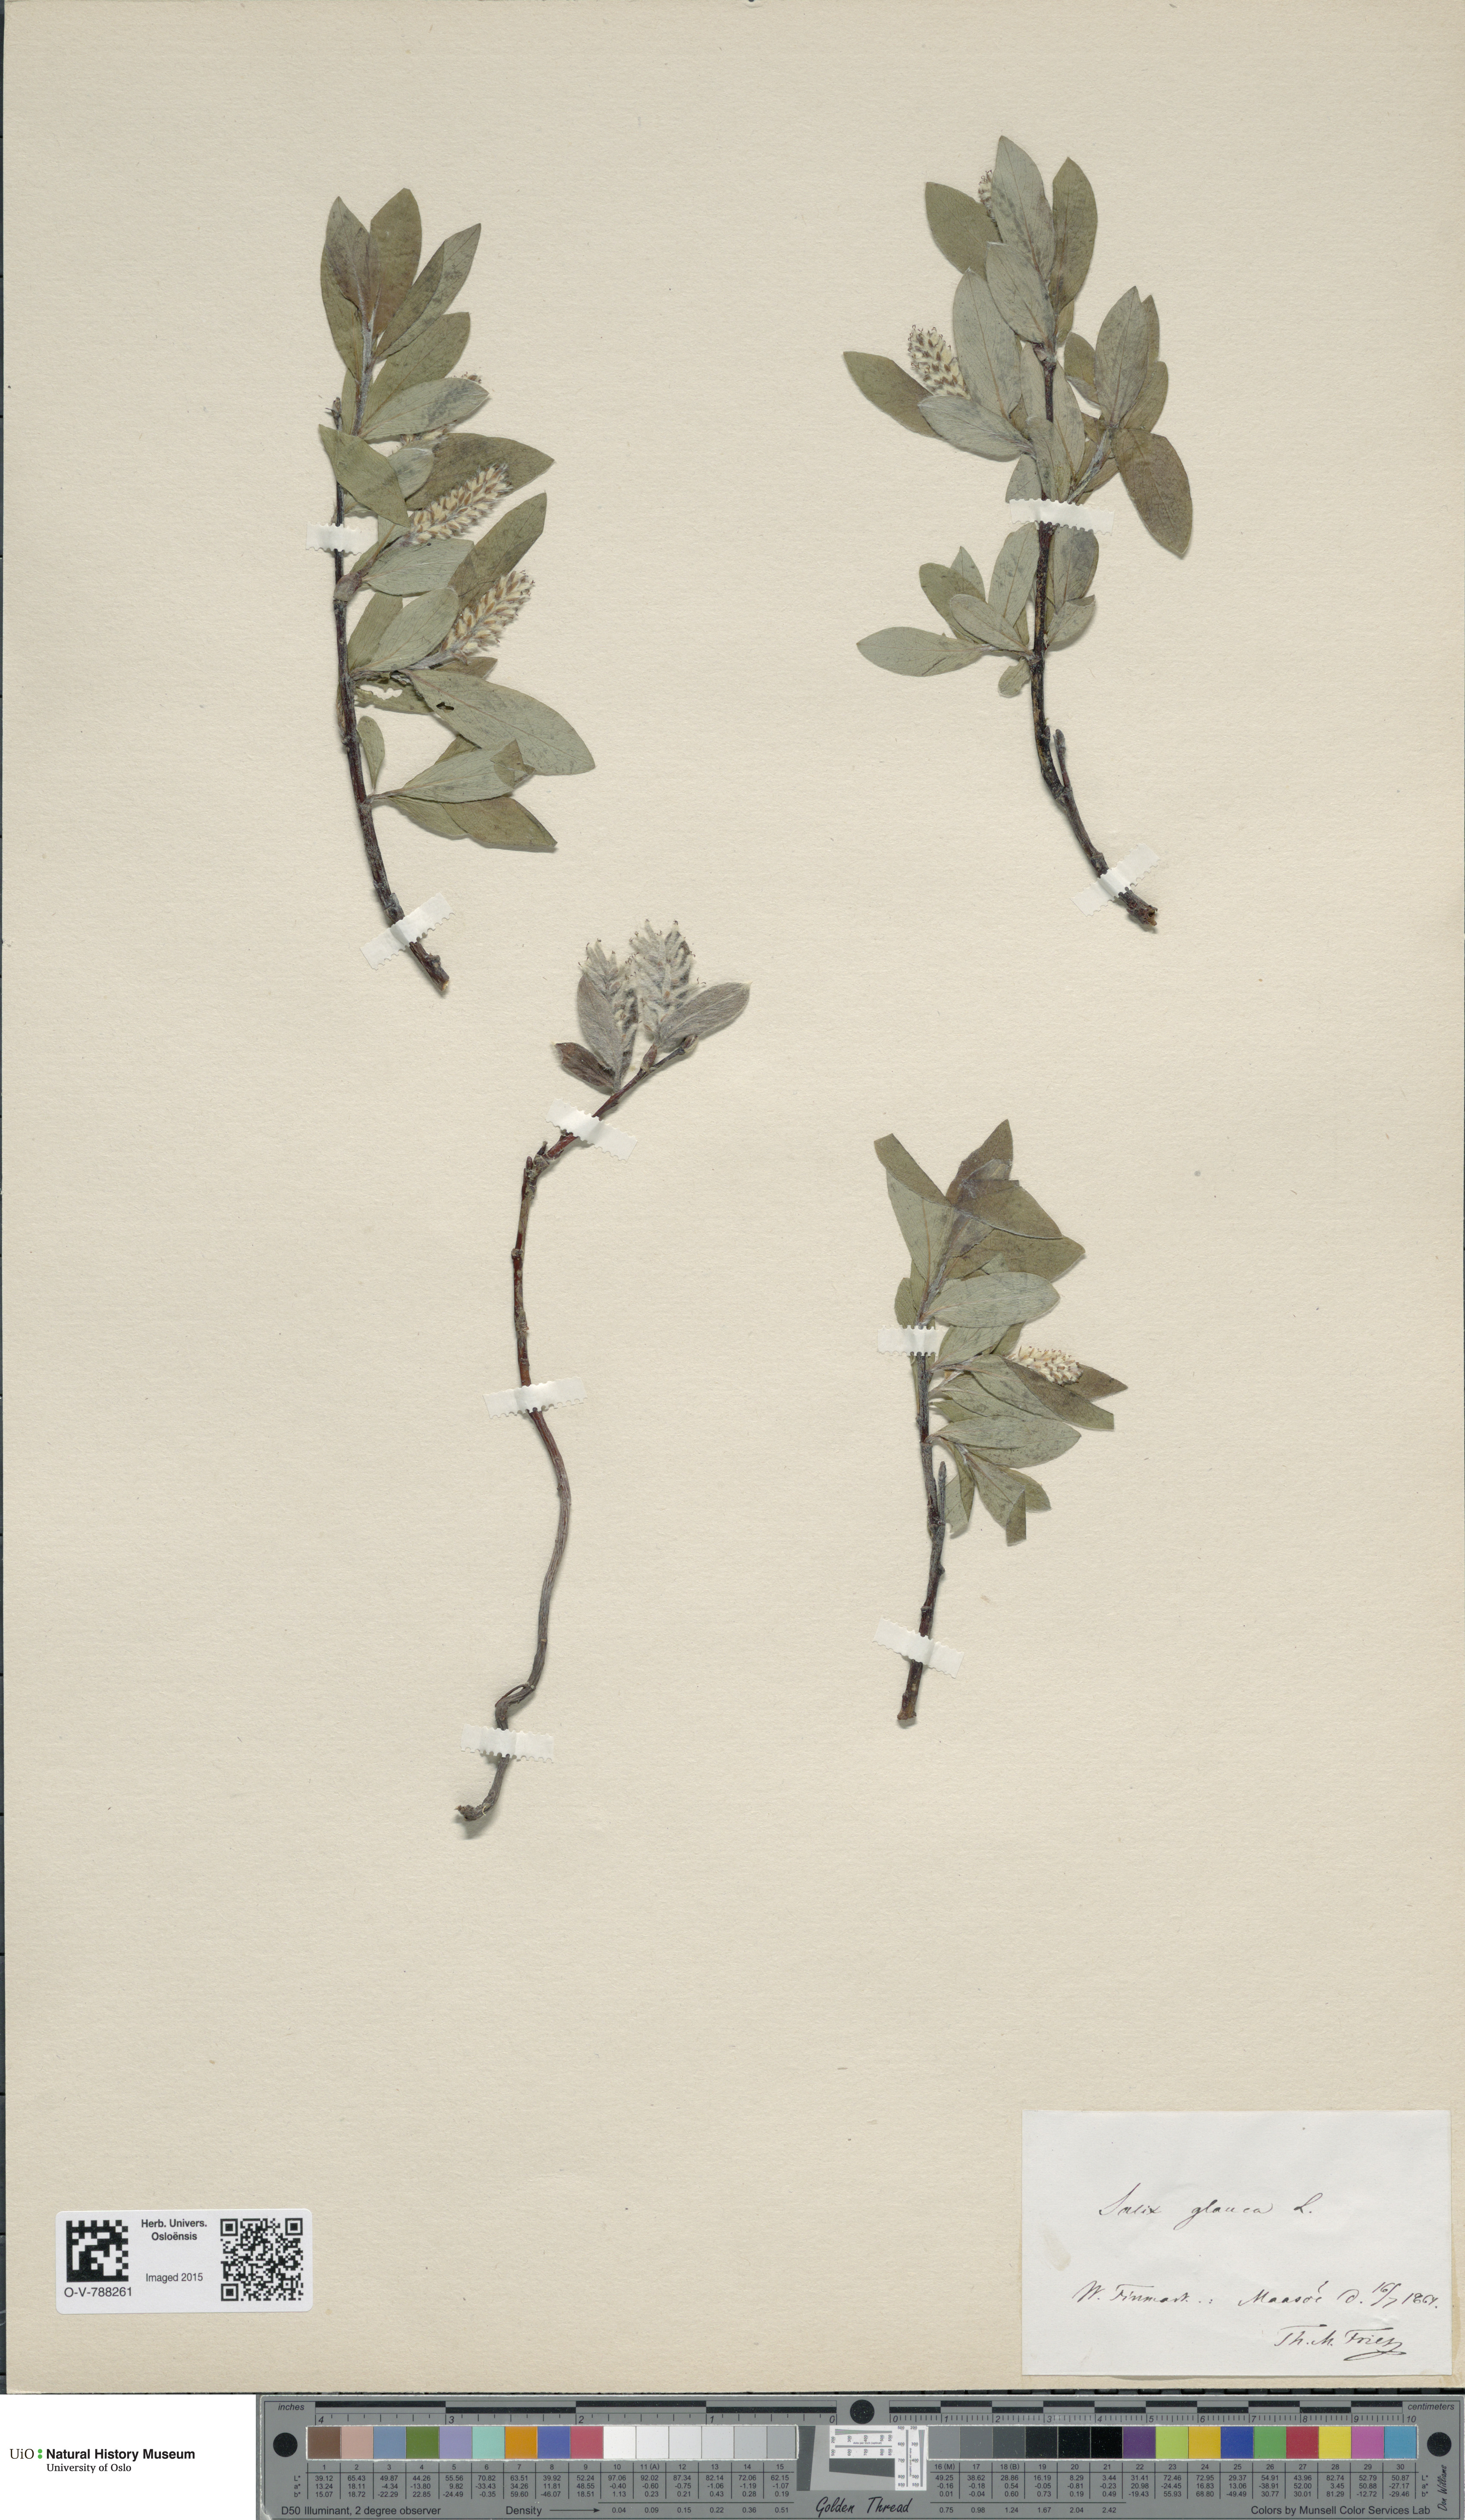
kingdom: Plantae
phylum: Tracheophyta
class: Magnoliopsida
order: Malpighiales
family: Salicaceae
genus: Salix
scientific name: Salix glauca
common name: Glaucous willow
